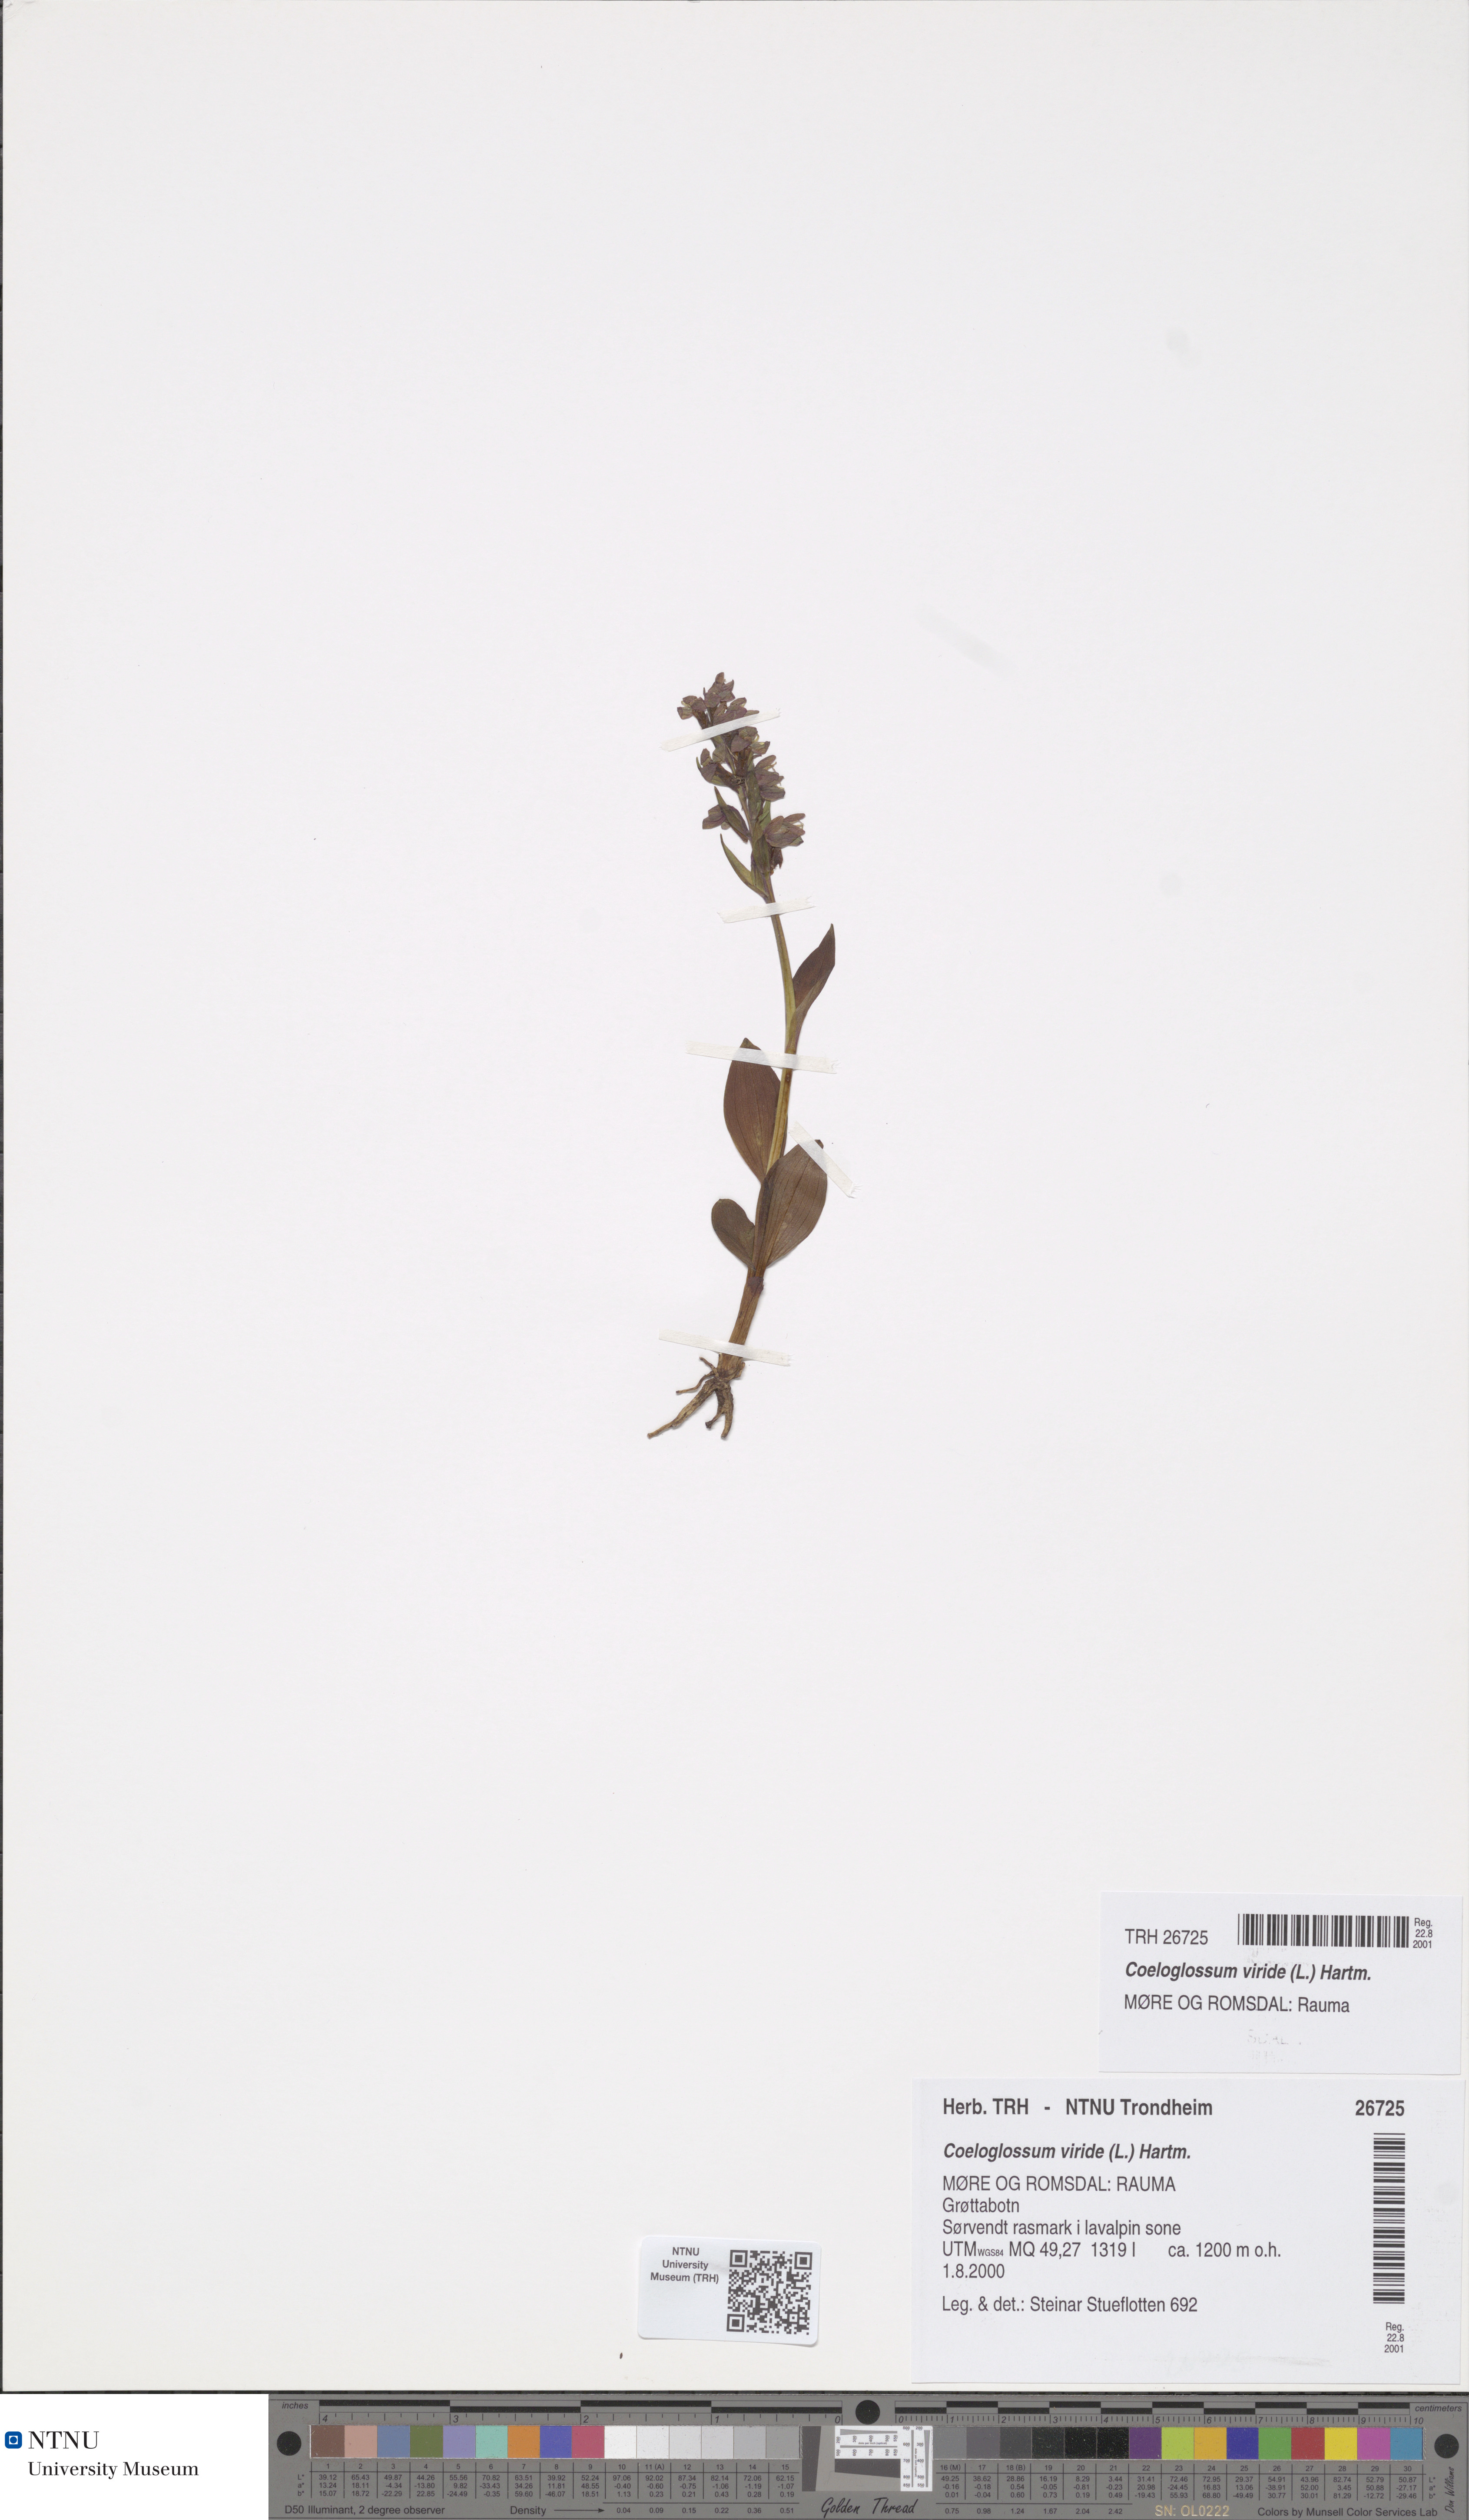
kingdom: Plantae
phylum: Tracheophyta
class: Liliopsida
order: Asparagales
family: Orchidaceae
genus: Dactylorhiza
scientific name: Dactylorhiza viridis
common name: Longbract frog orchid
